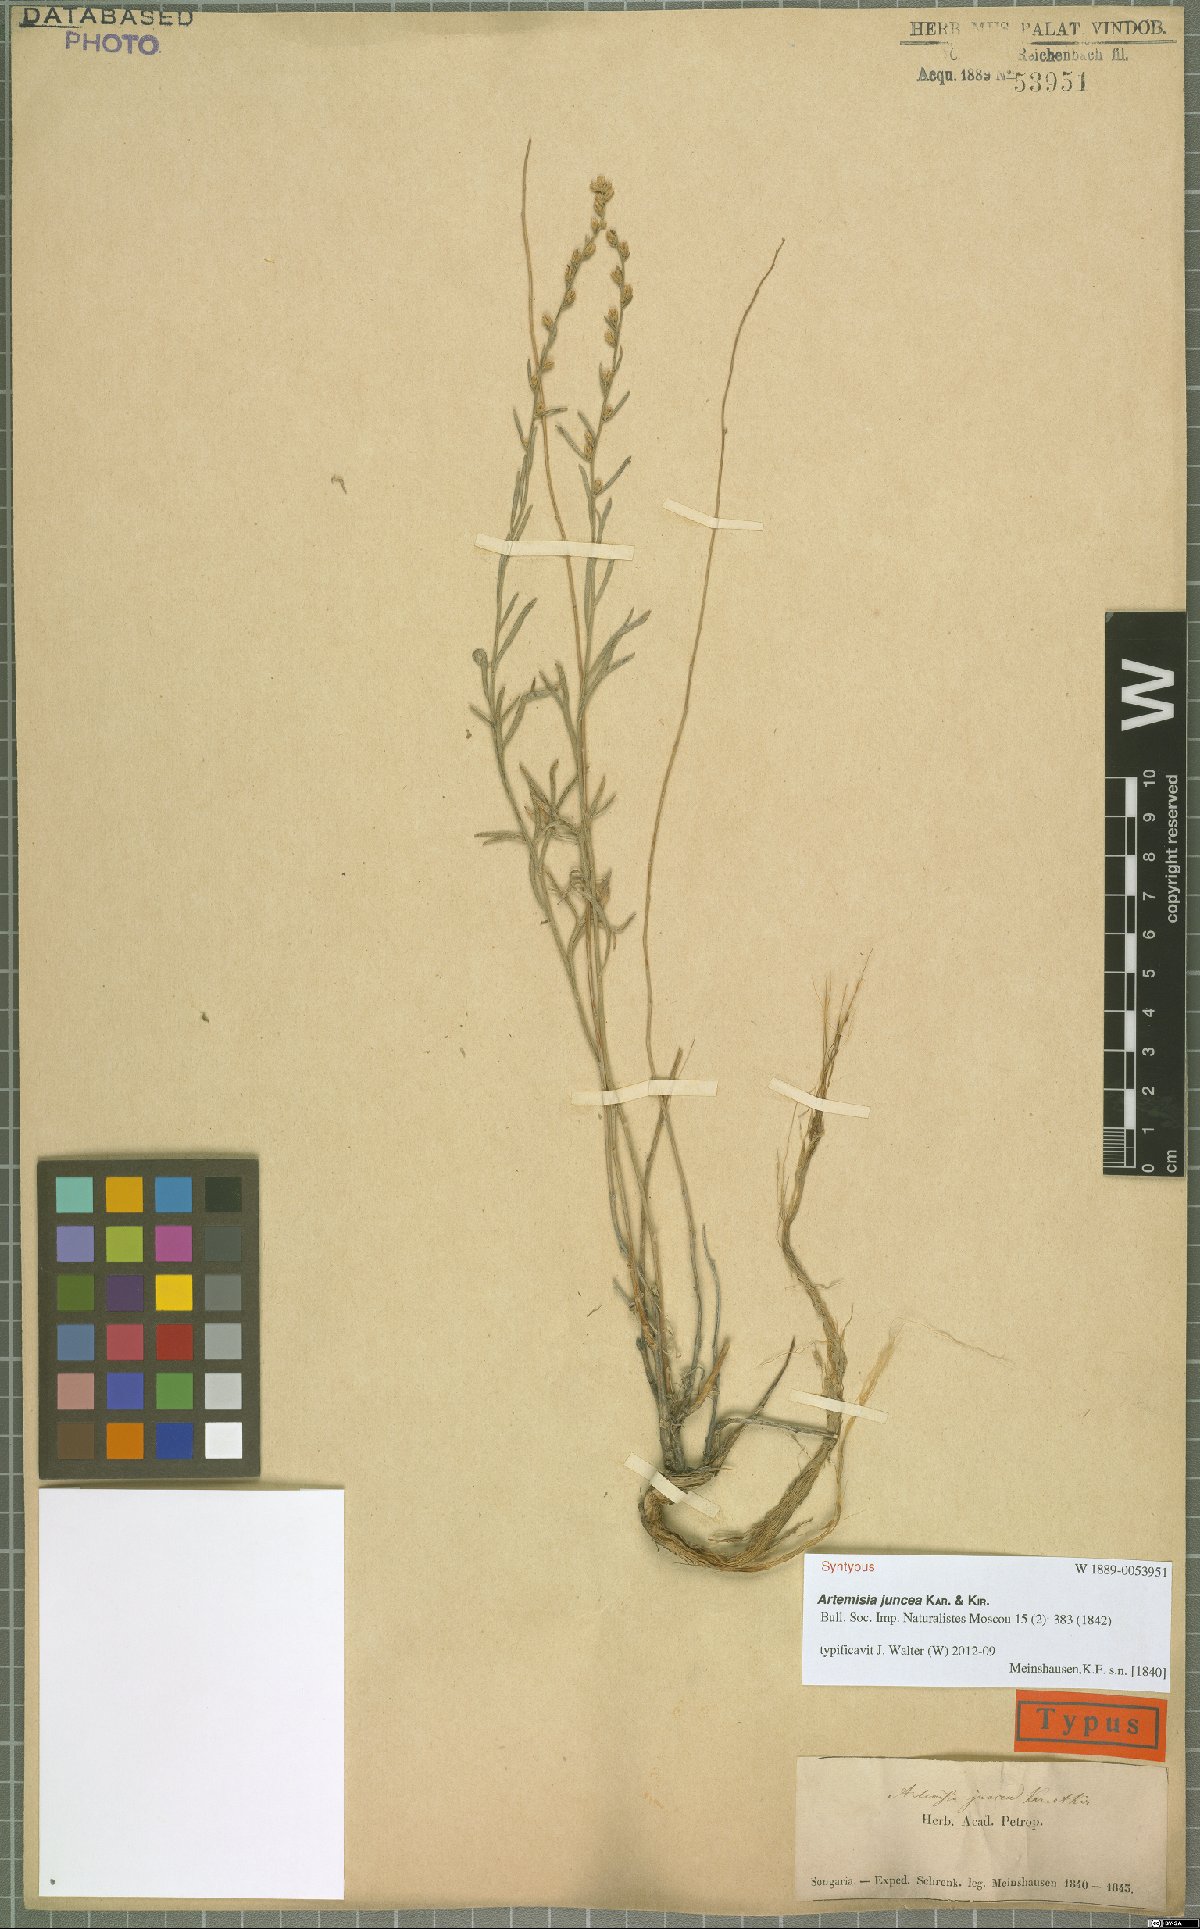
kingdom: Plantae
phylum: Tracheophyta
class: Magnoliopsida
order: Asterales
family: Asteraceae
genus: Artemisia
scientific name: Artemisia juncea
